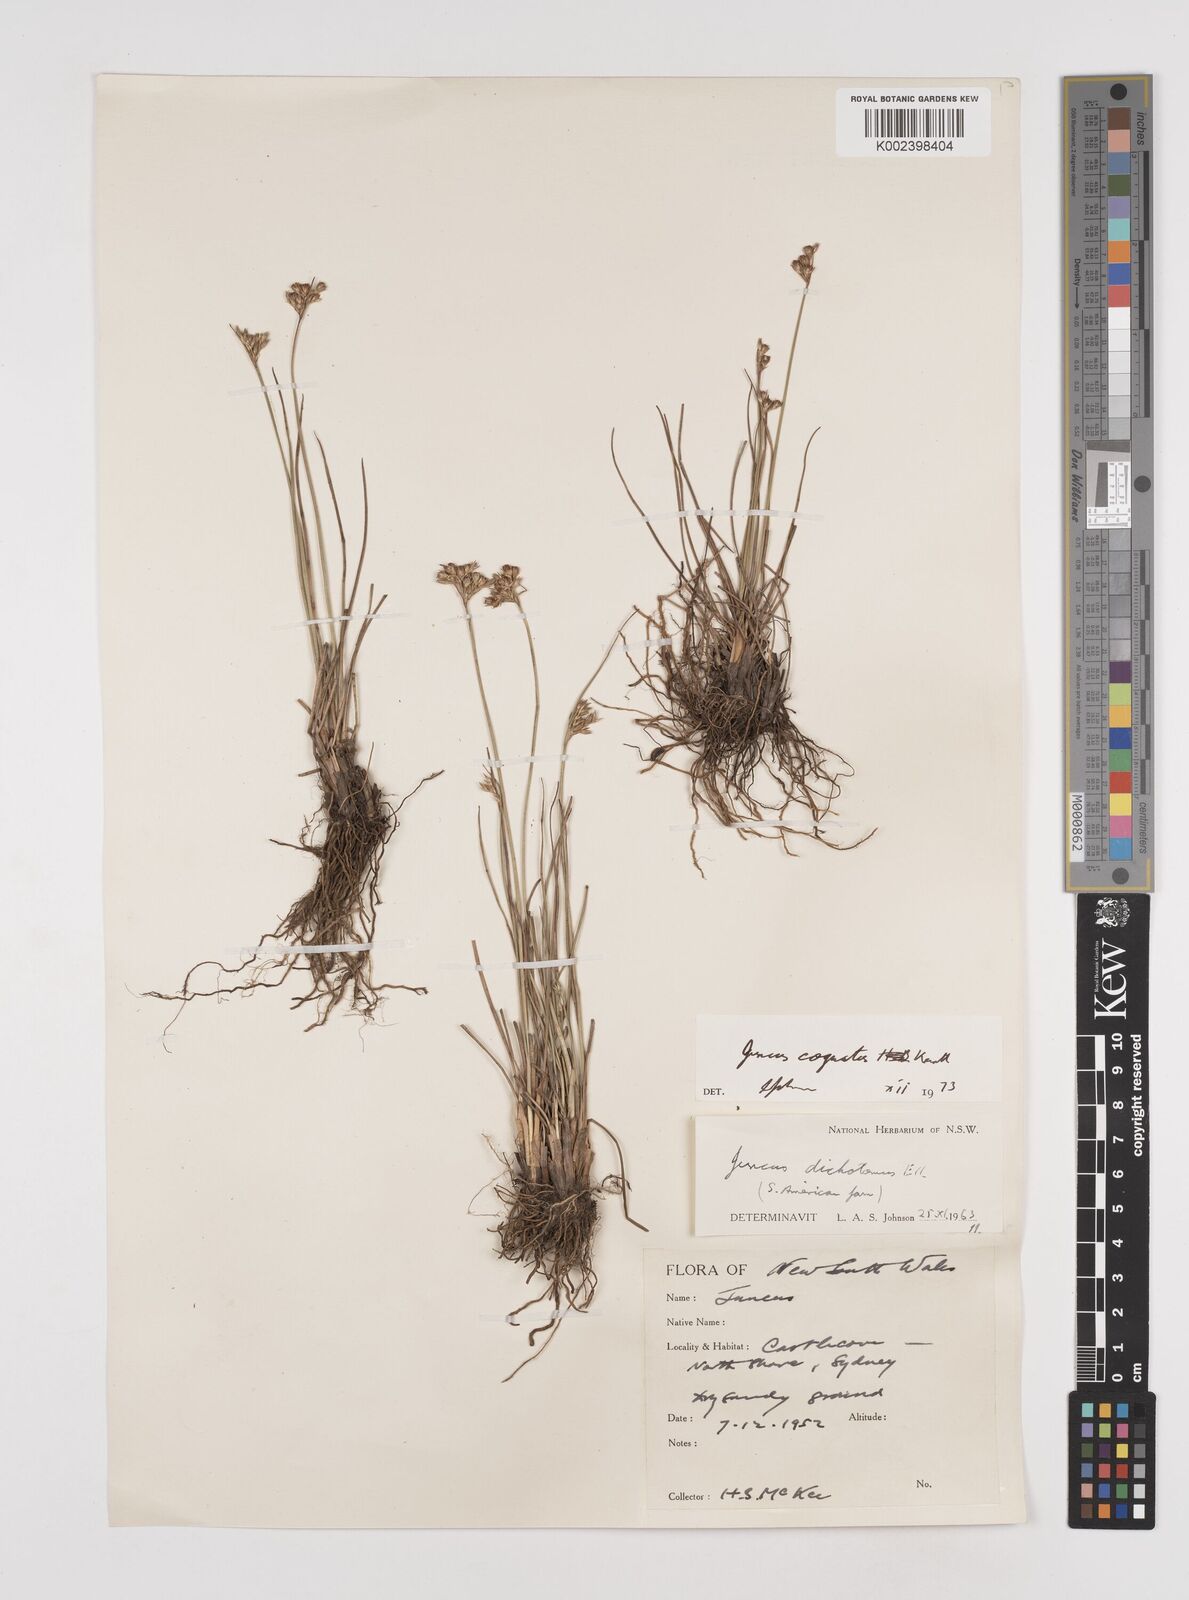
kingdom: Plantae
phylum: Tracheophyta
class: Liliopsida
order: Poales
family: Juncaceae
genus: Juncus
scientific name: Juncus dichotomus
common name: Forked rush
